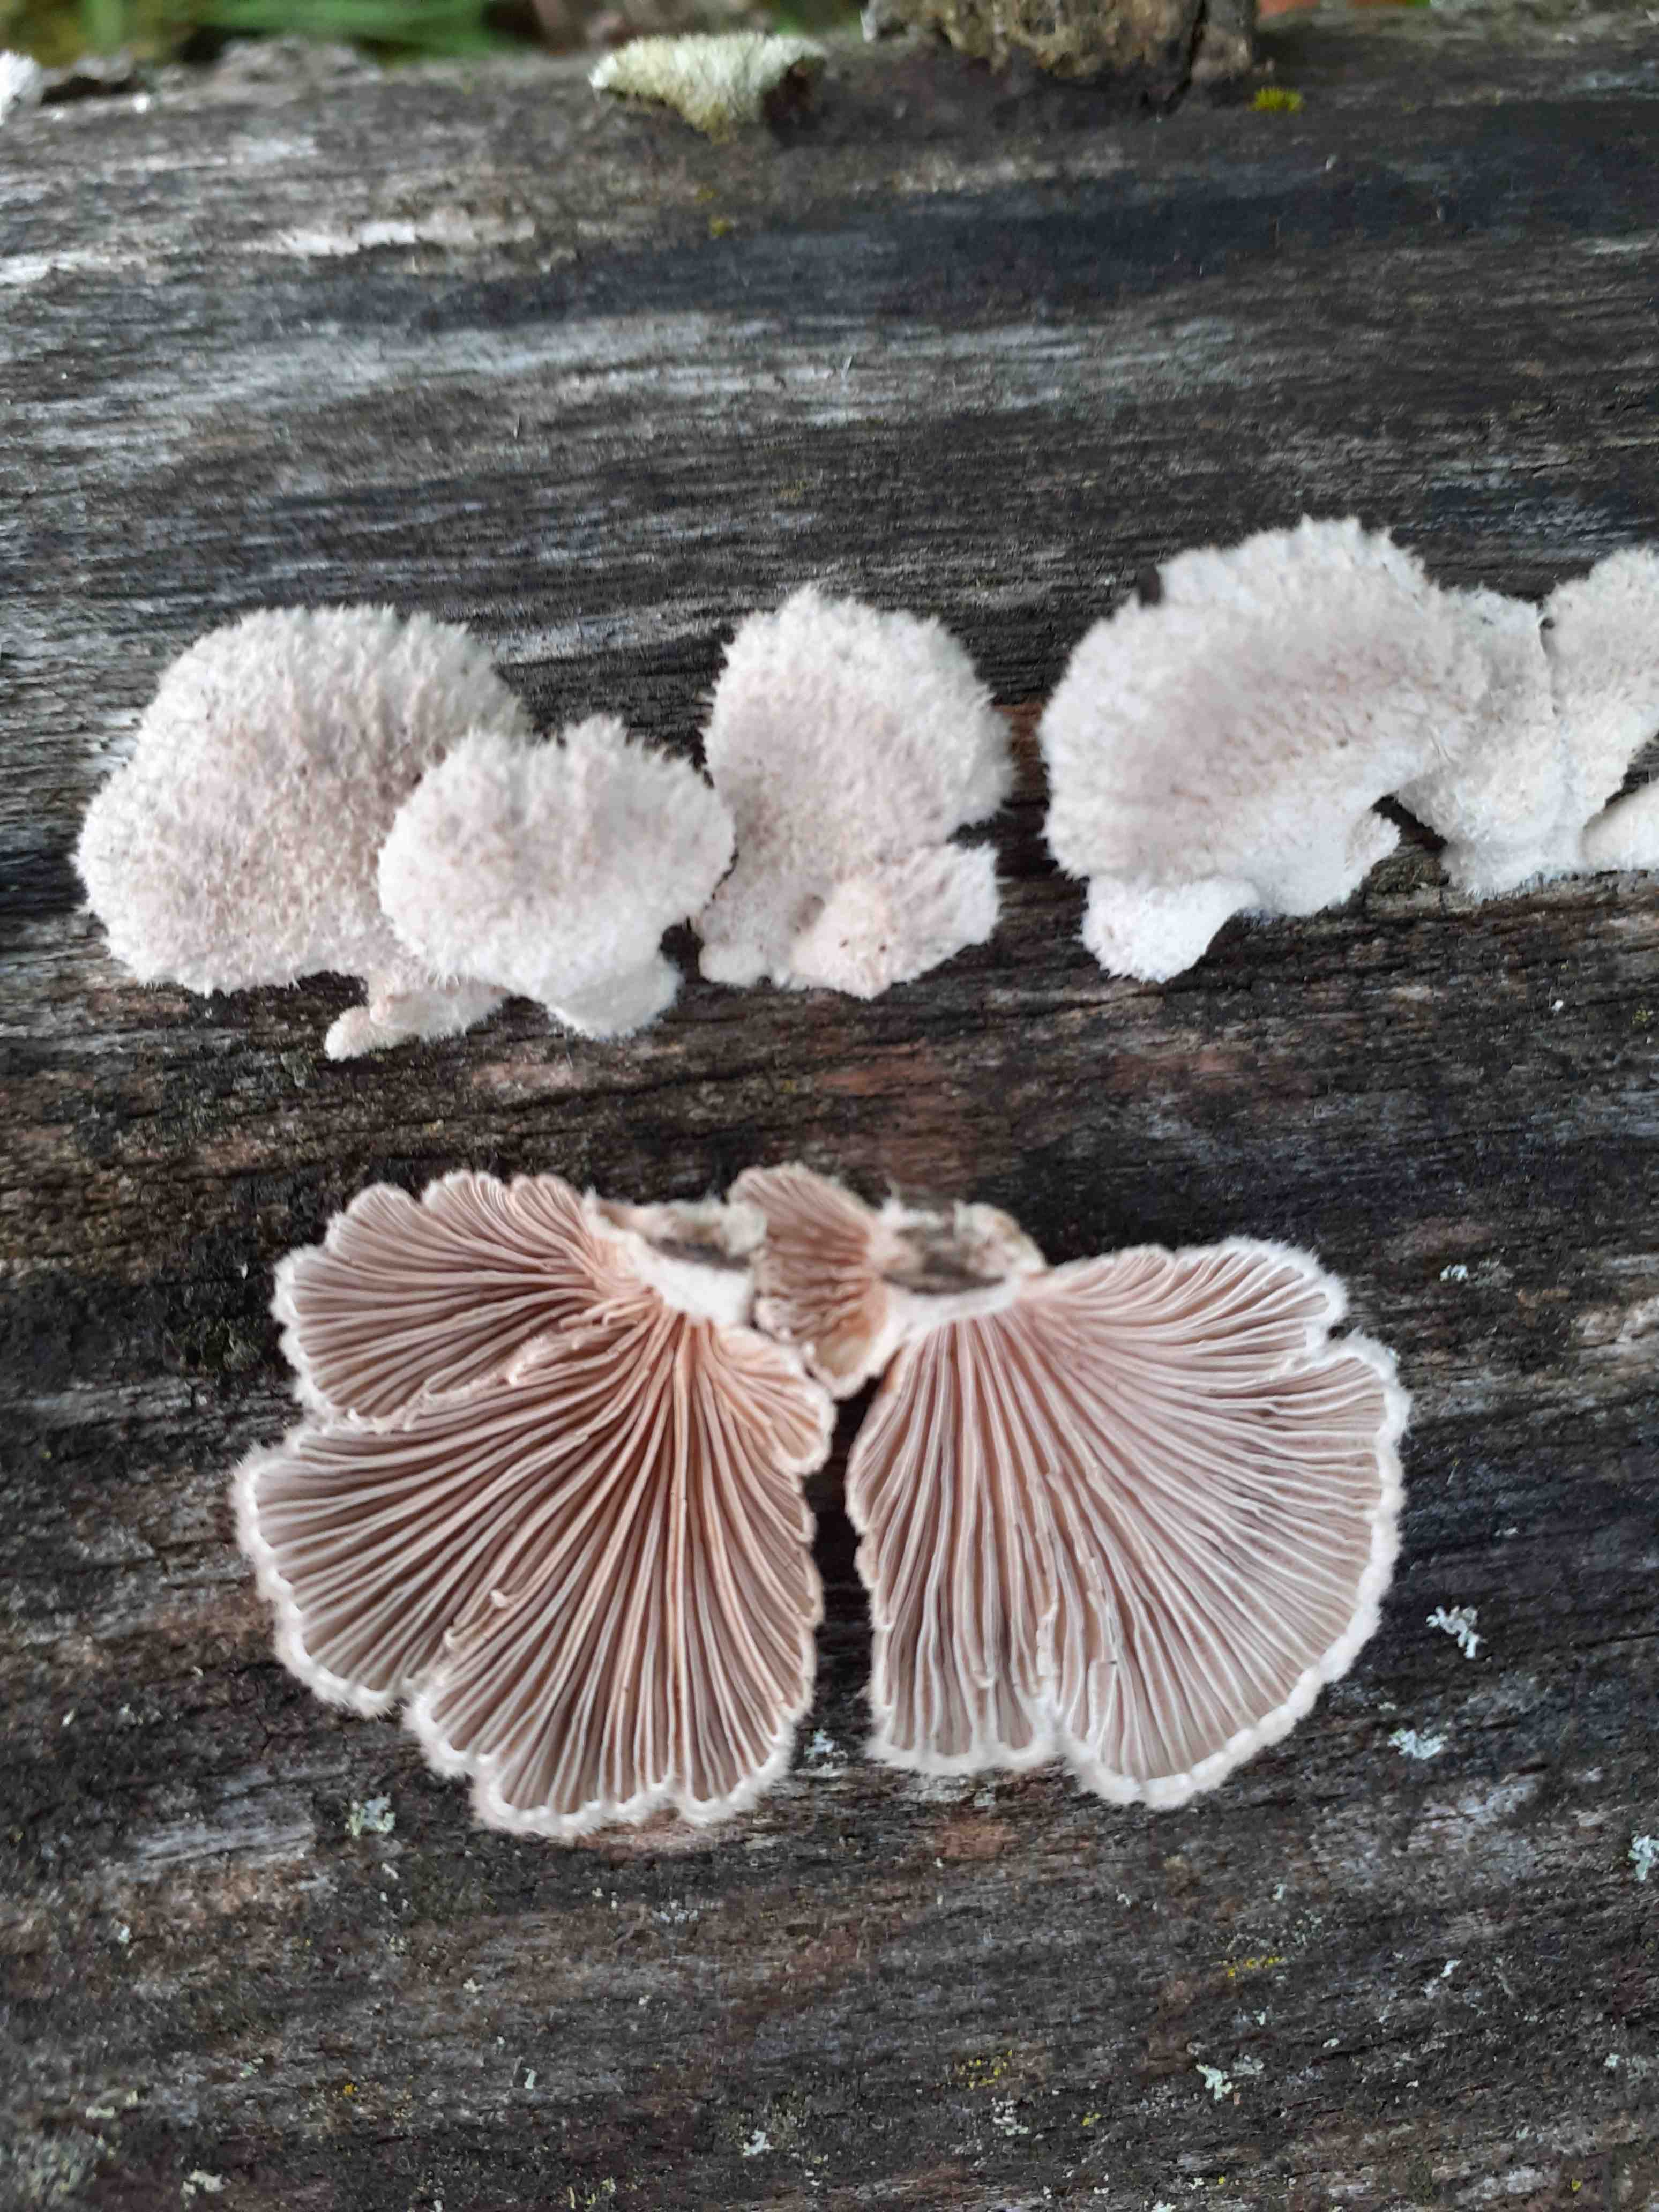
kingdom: Fungi
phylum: Basidiomycota
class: Agaricomycetes
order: Agaricales
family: Schizophyllaceae
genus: Schizophyllum
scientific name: Schizophyllum commune
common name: kløvblad
